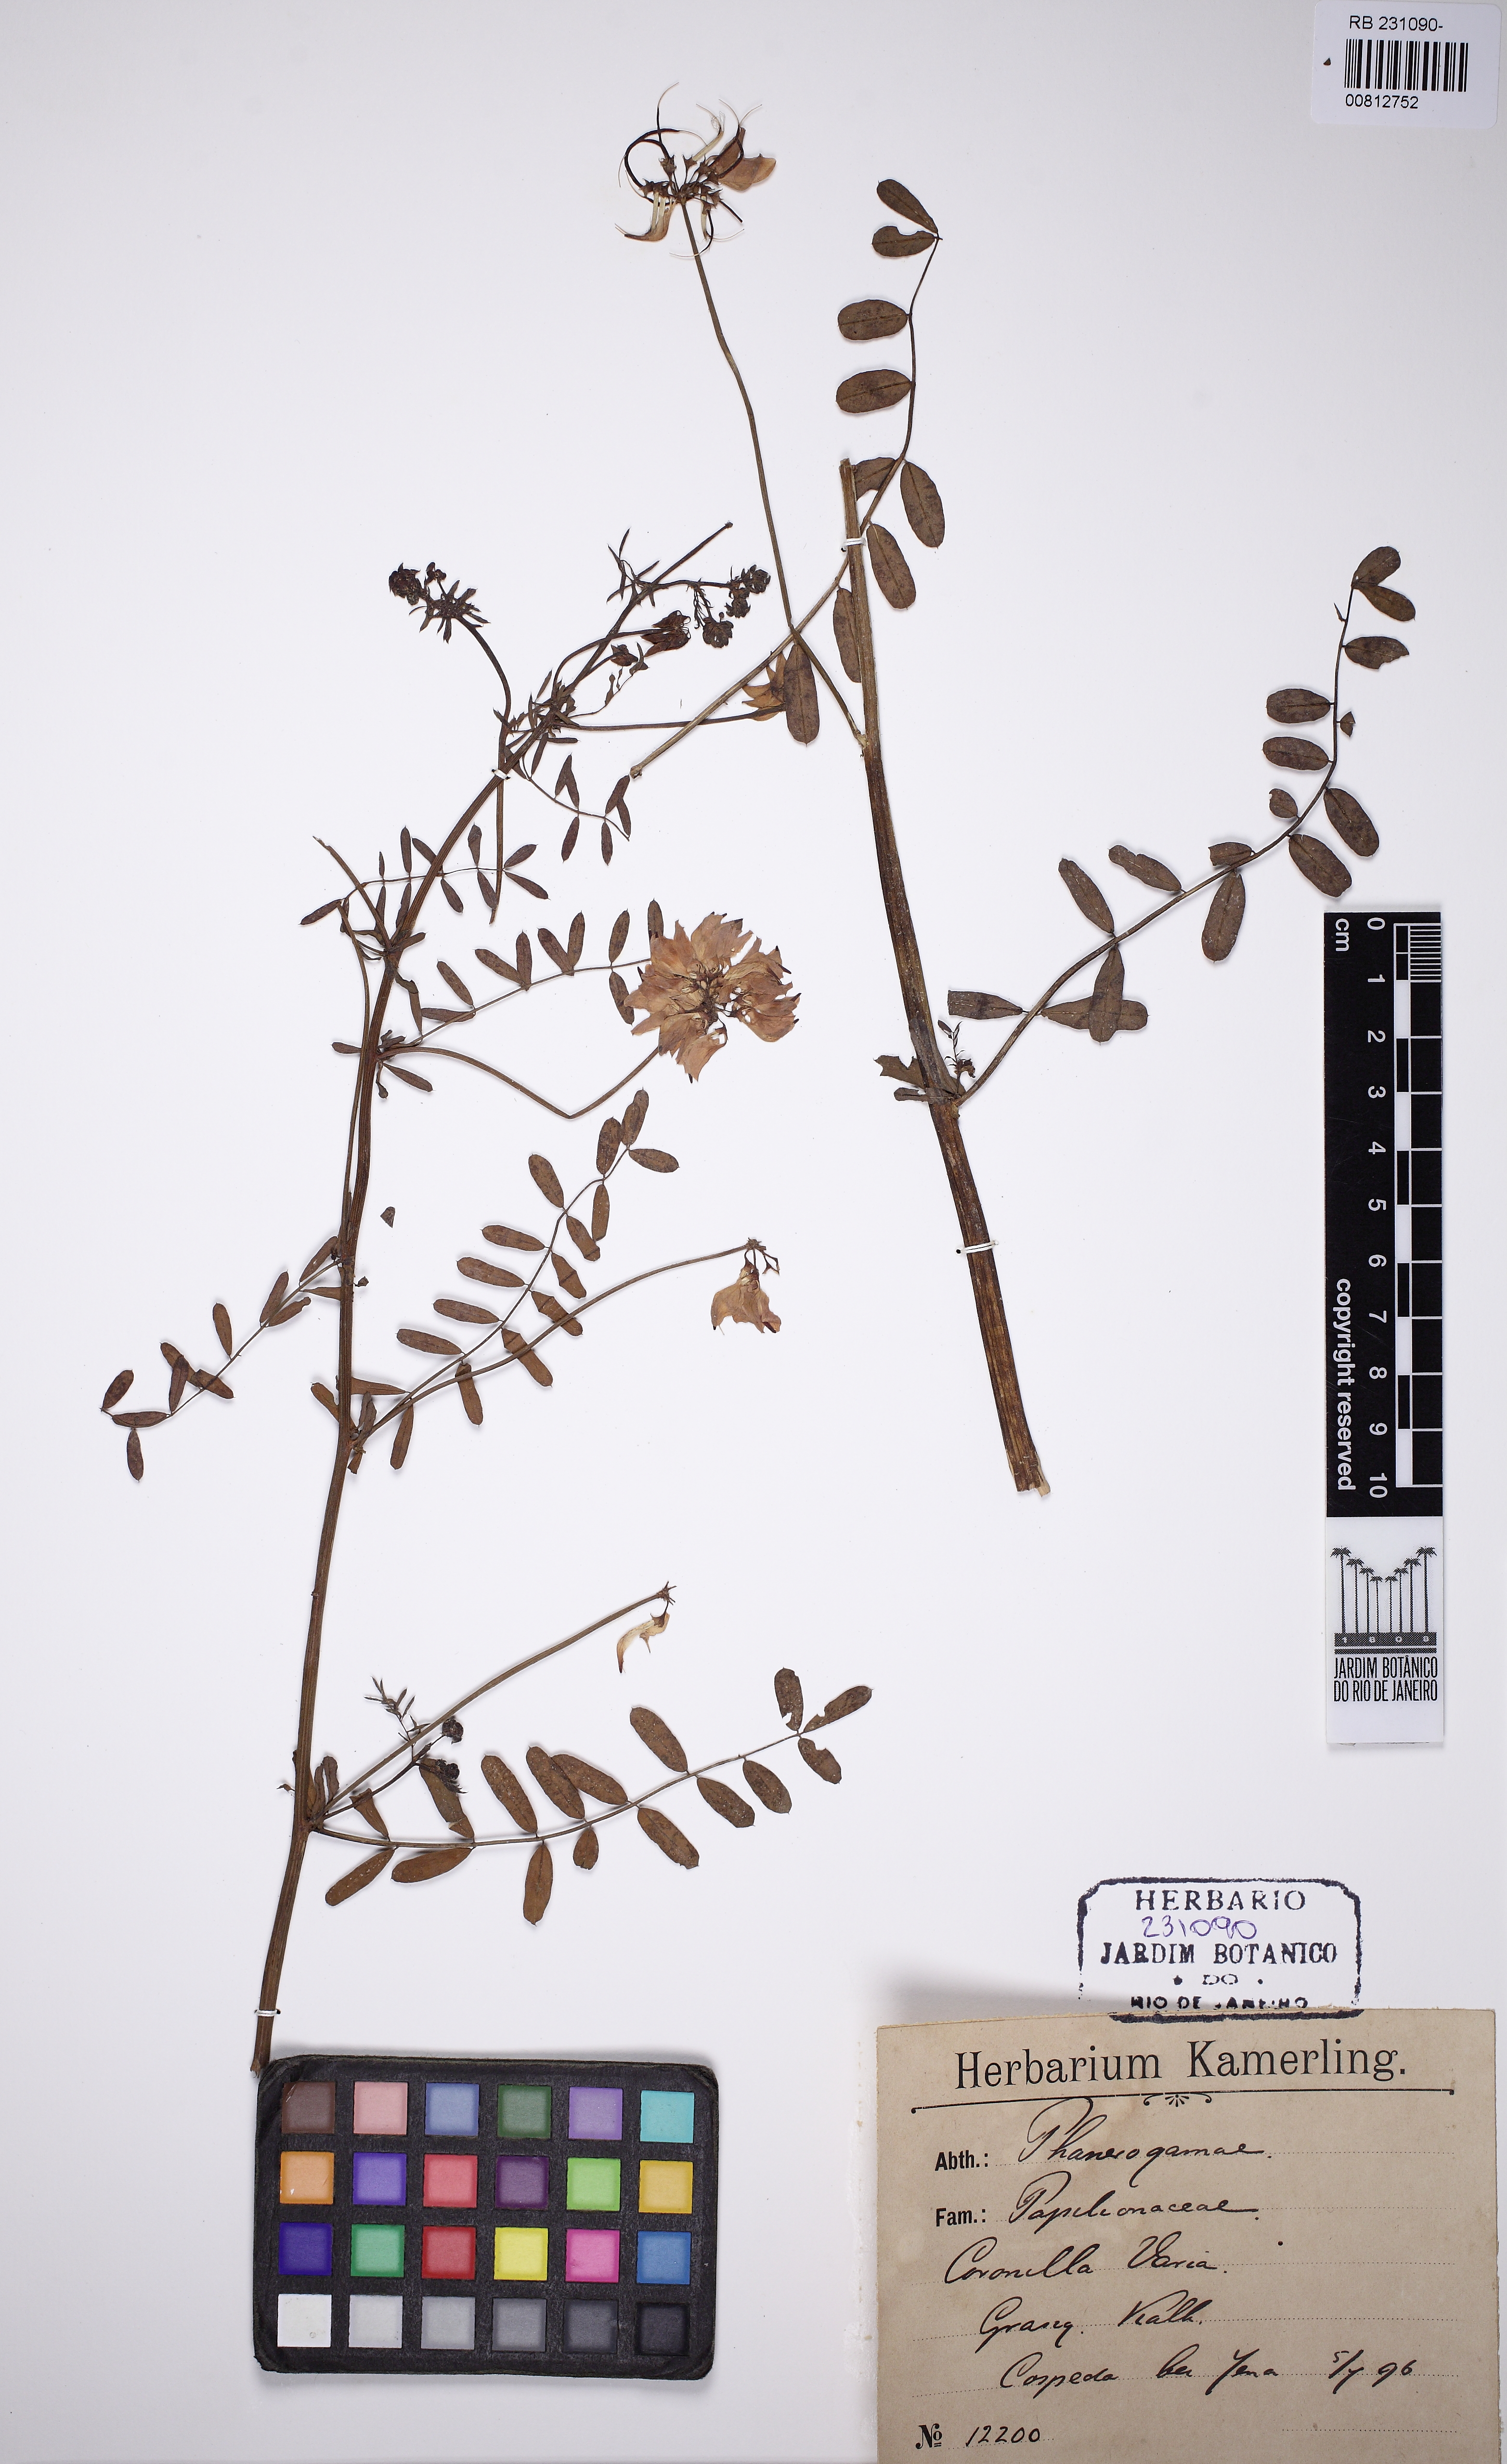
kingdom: Plantae
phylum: Tracheophyta
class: Magnoliopsida
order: Fabales
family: Fabaceae
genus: Coronilla
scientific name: Coronilla varia
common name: Crownvetch
